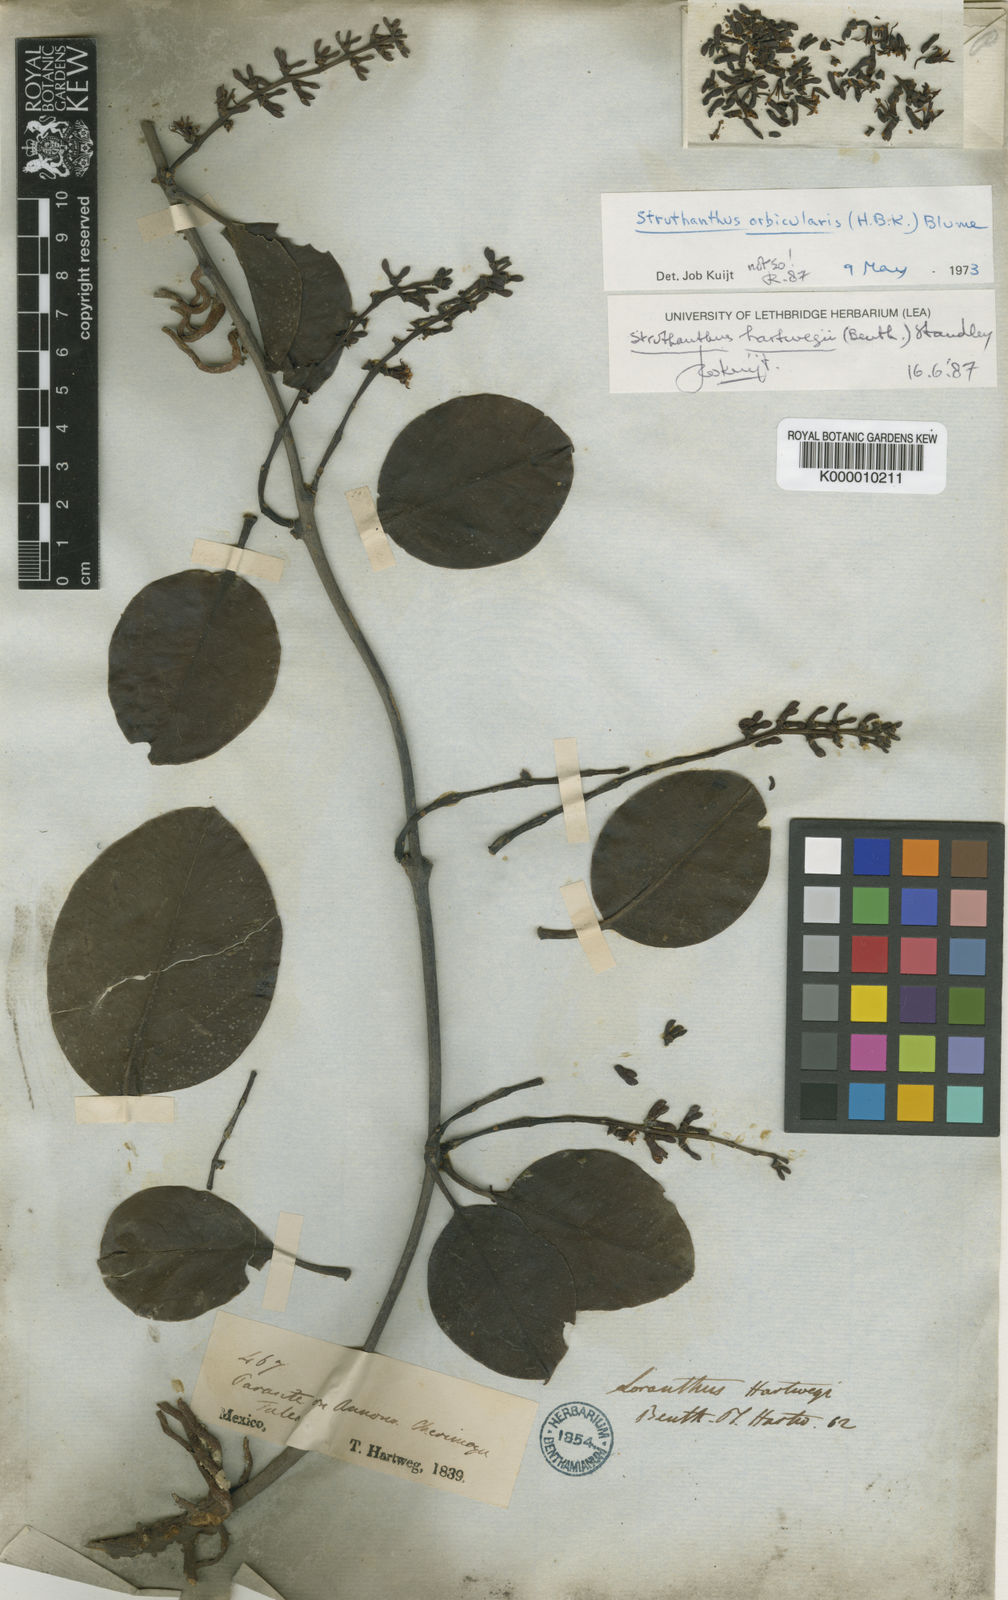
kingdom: Plantae
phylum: Tracheophyta
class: Magnoliopsida
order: Santalales
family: Loranthaceae
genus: Struthanthus
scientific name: Struthanthus hartwegii
